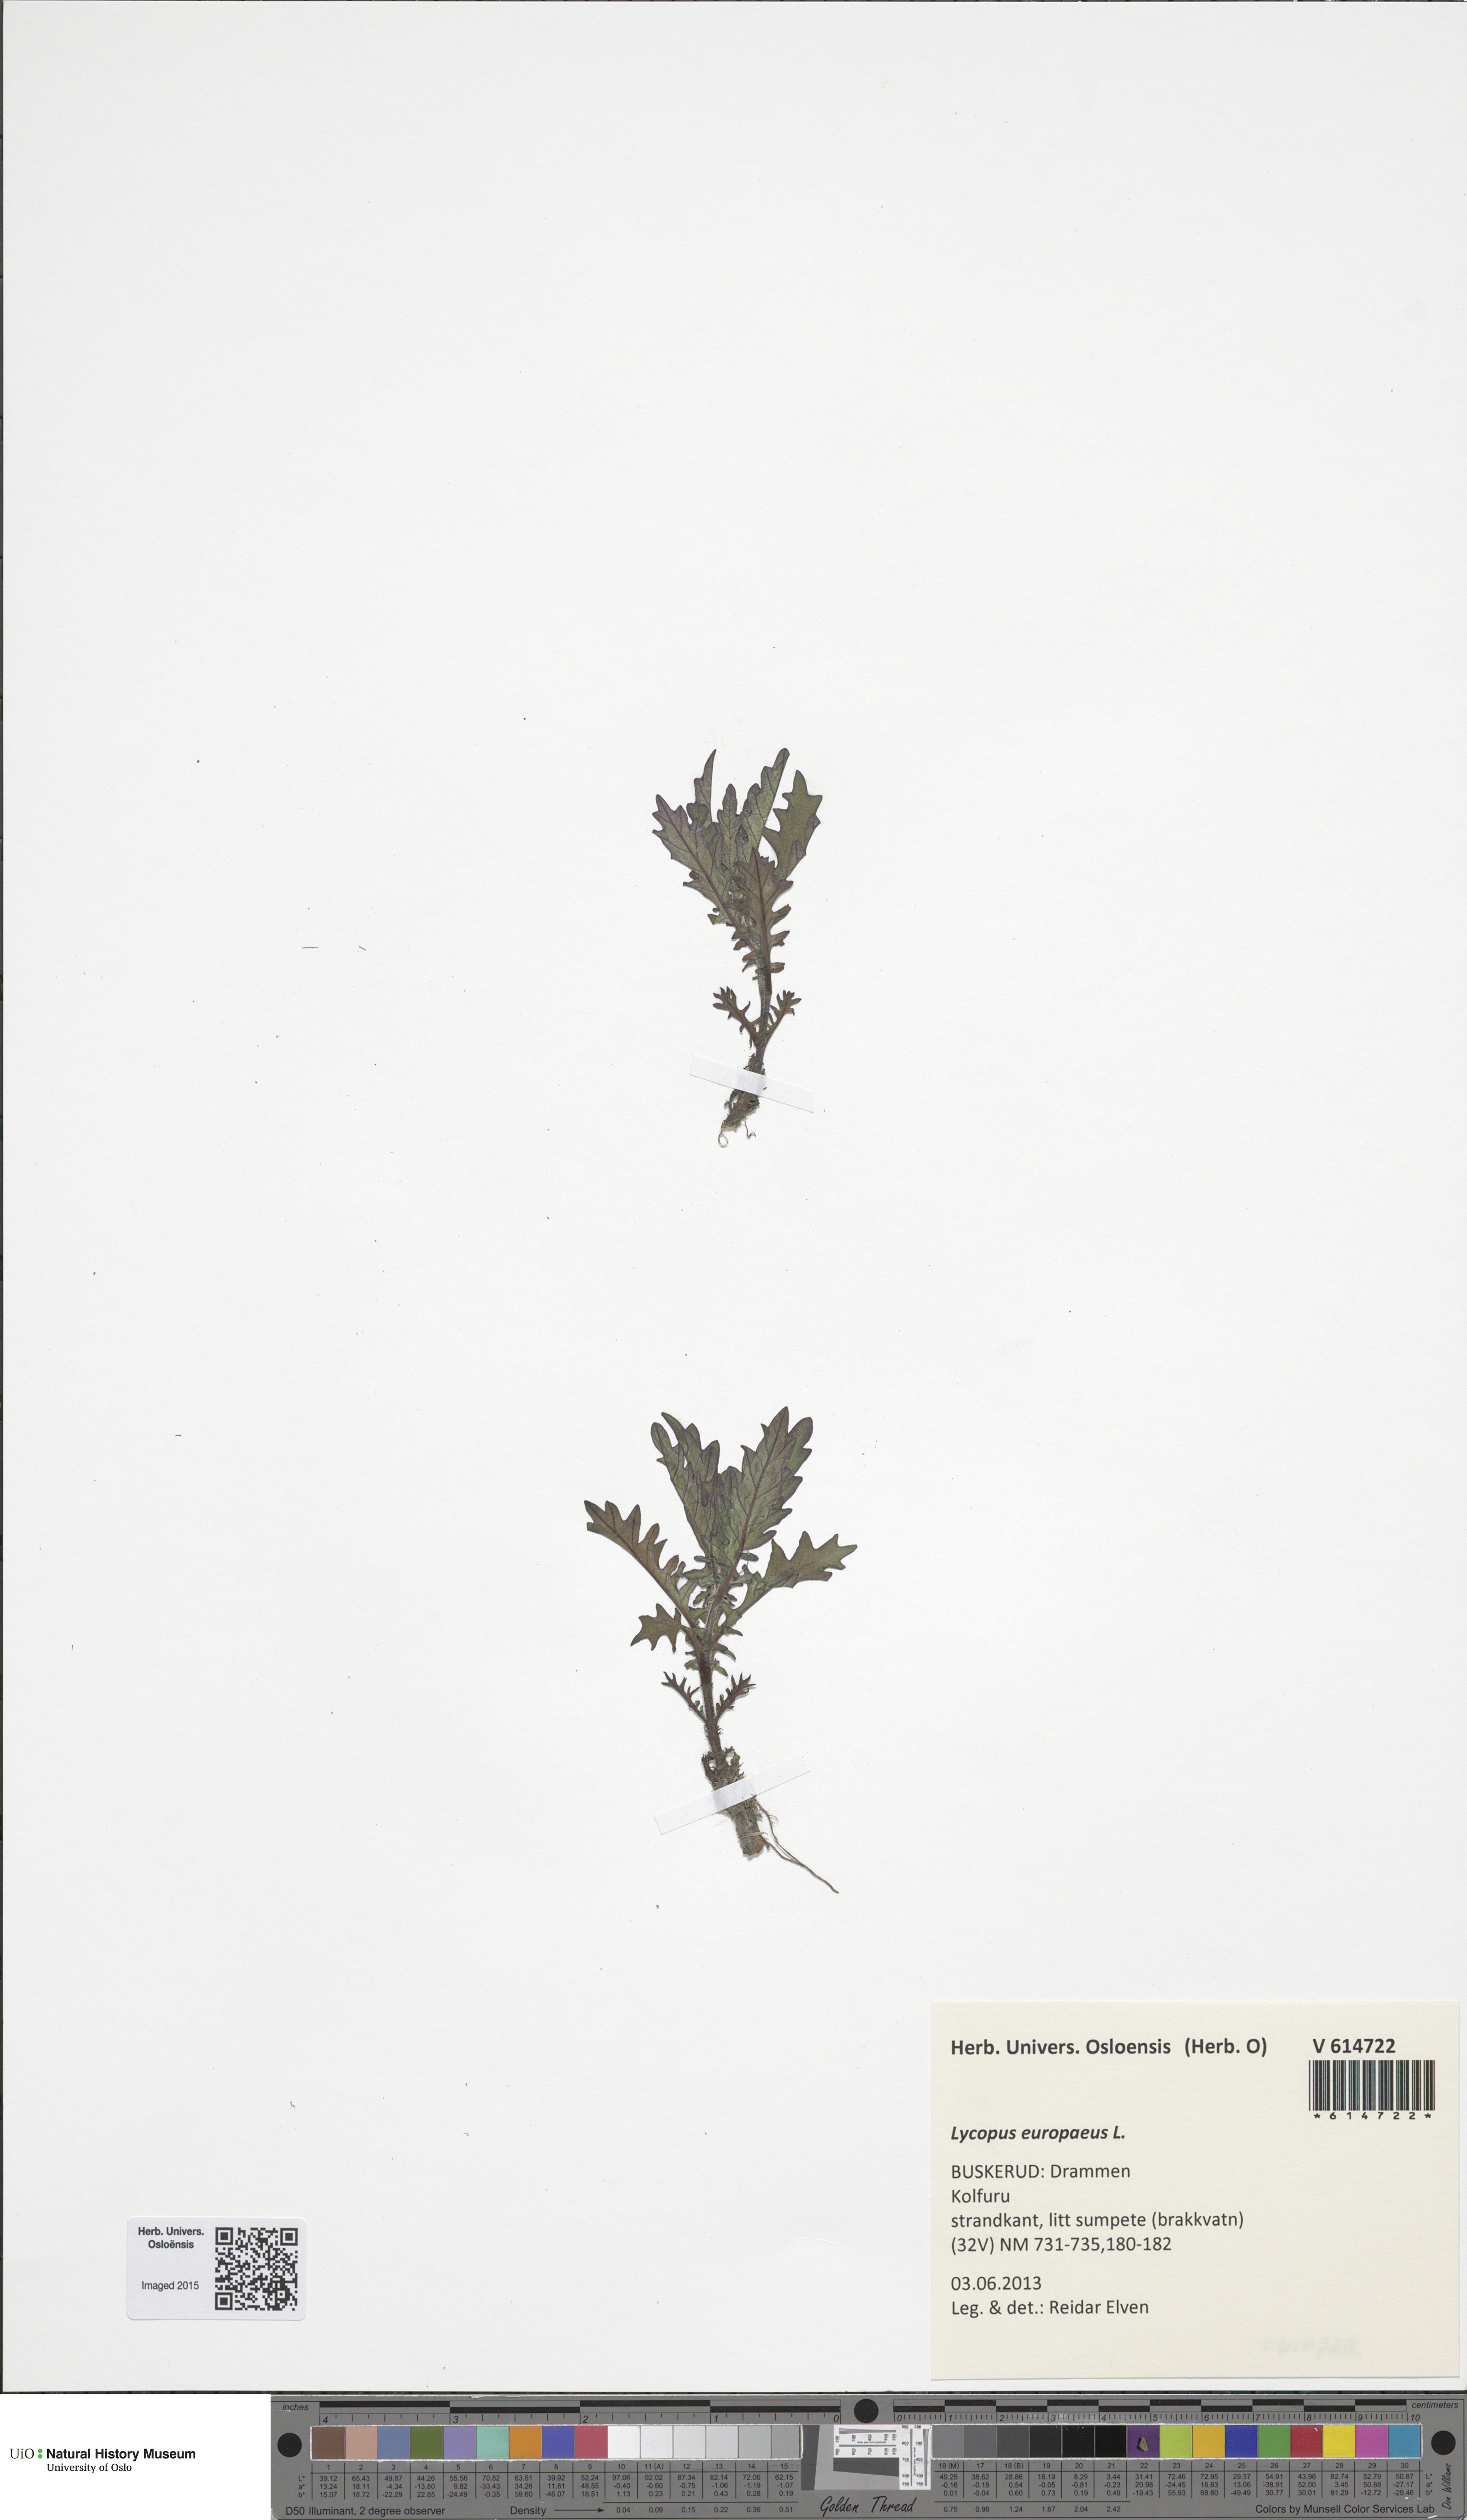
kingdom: Plantae
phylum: Tracheophyta
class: Magnoliopsida
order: Lamiales
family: Lamiaceae
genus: Lycopus
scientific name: Lycopus europaeus
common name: European bugleweed
